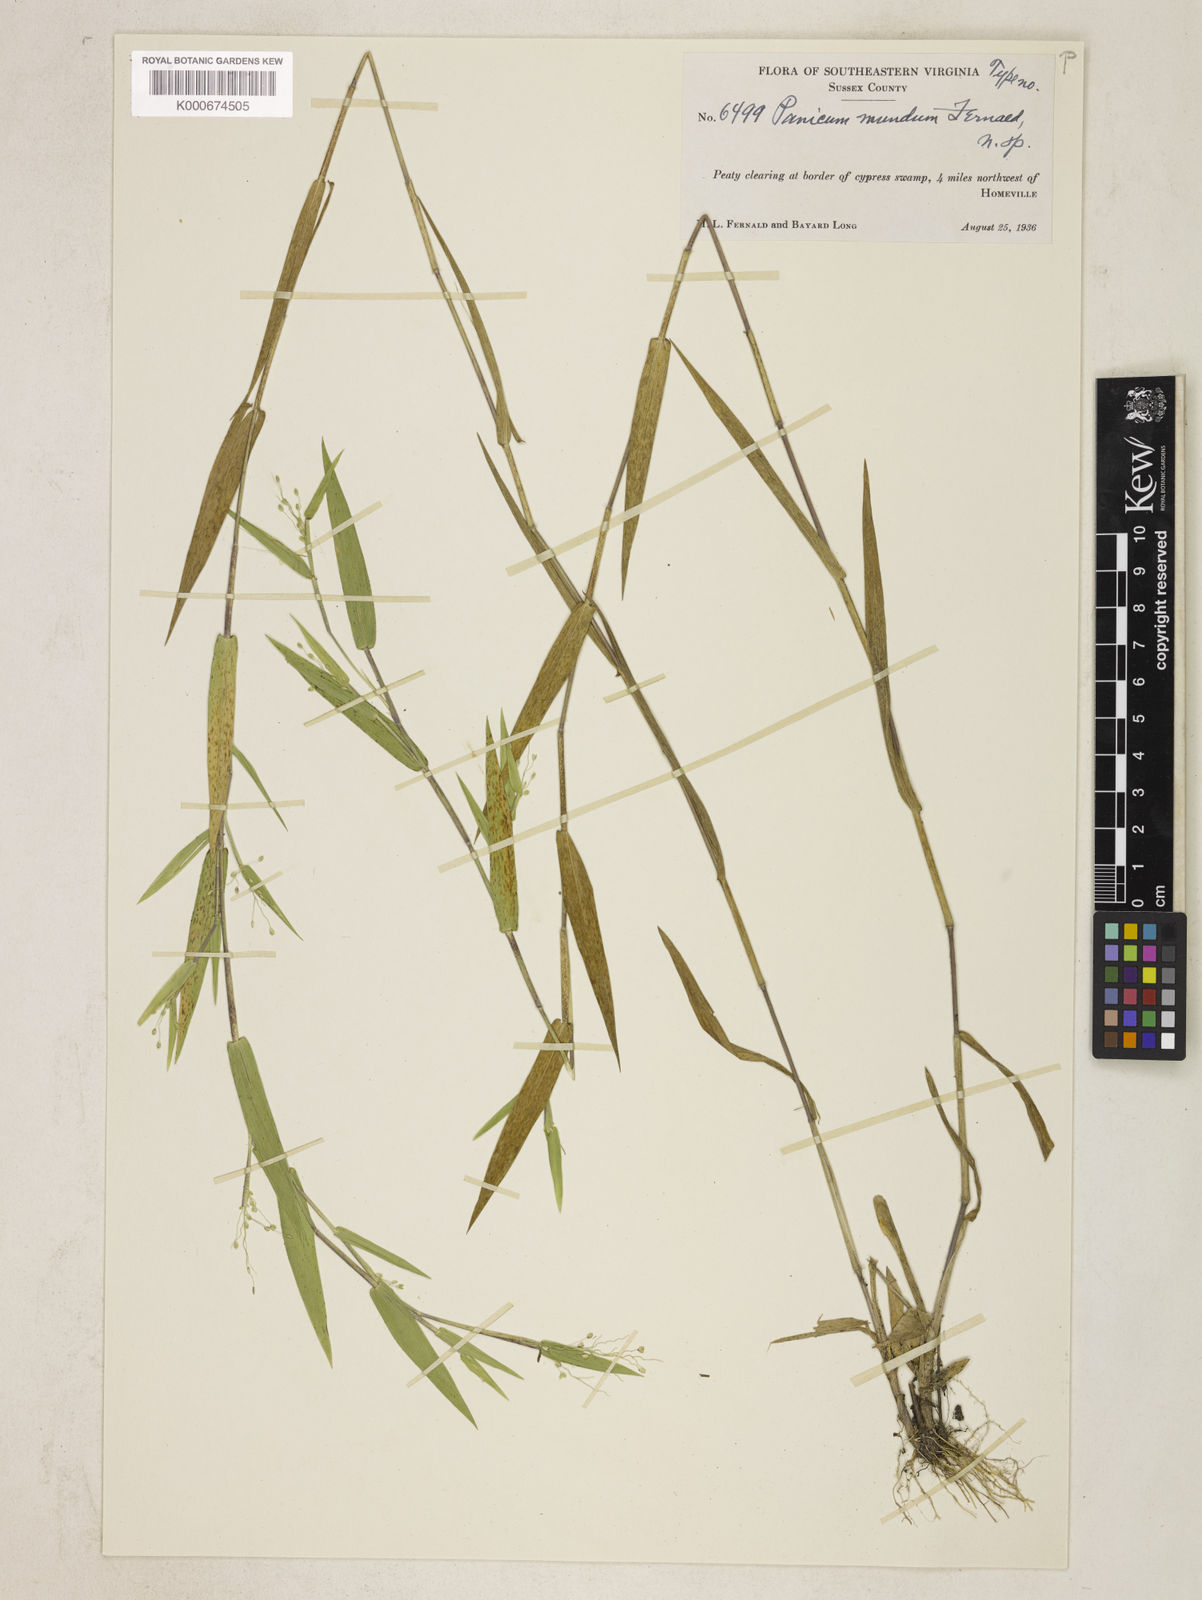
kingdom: Plantae
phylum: Tracheophyta
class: Liliopsida
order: Poales
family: Poaceae
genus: Dichanthelium
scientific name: Dichanthelium mundum
